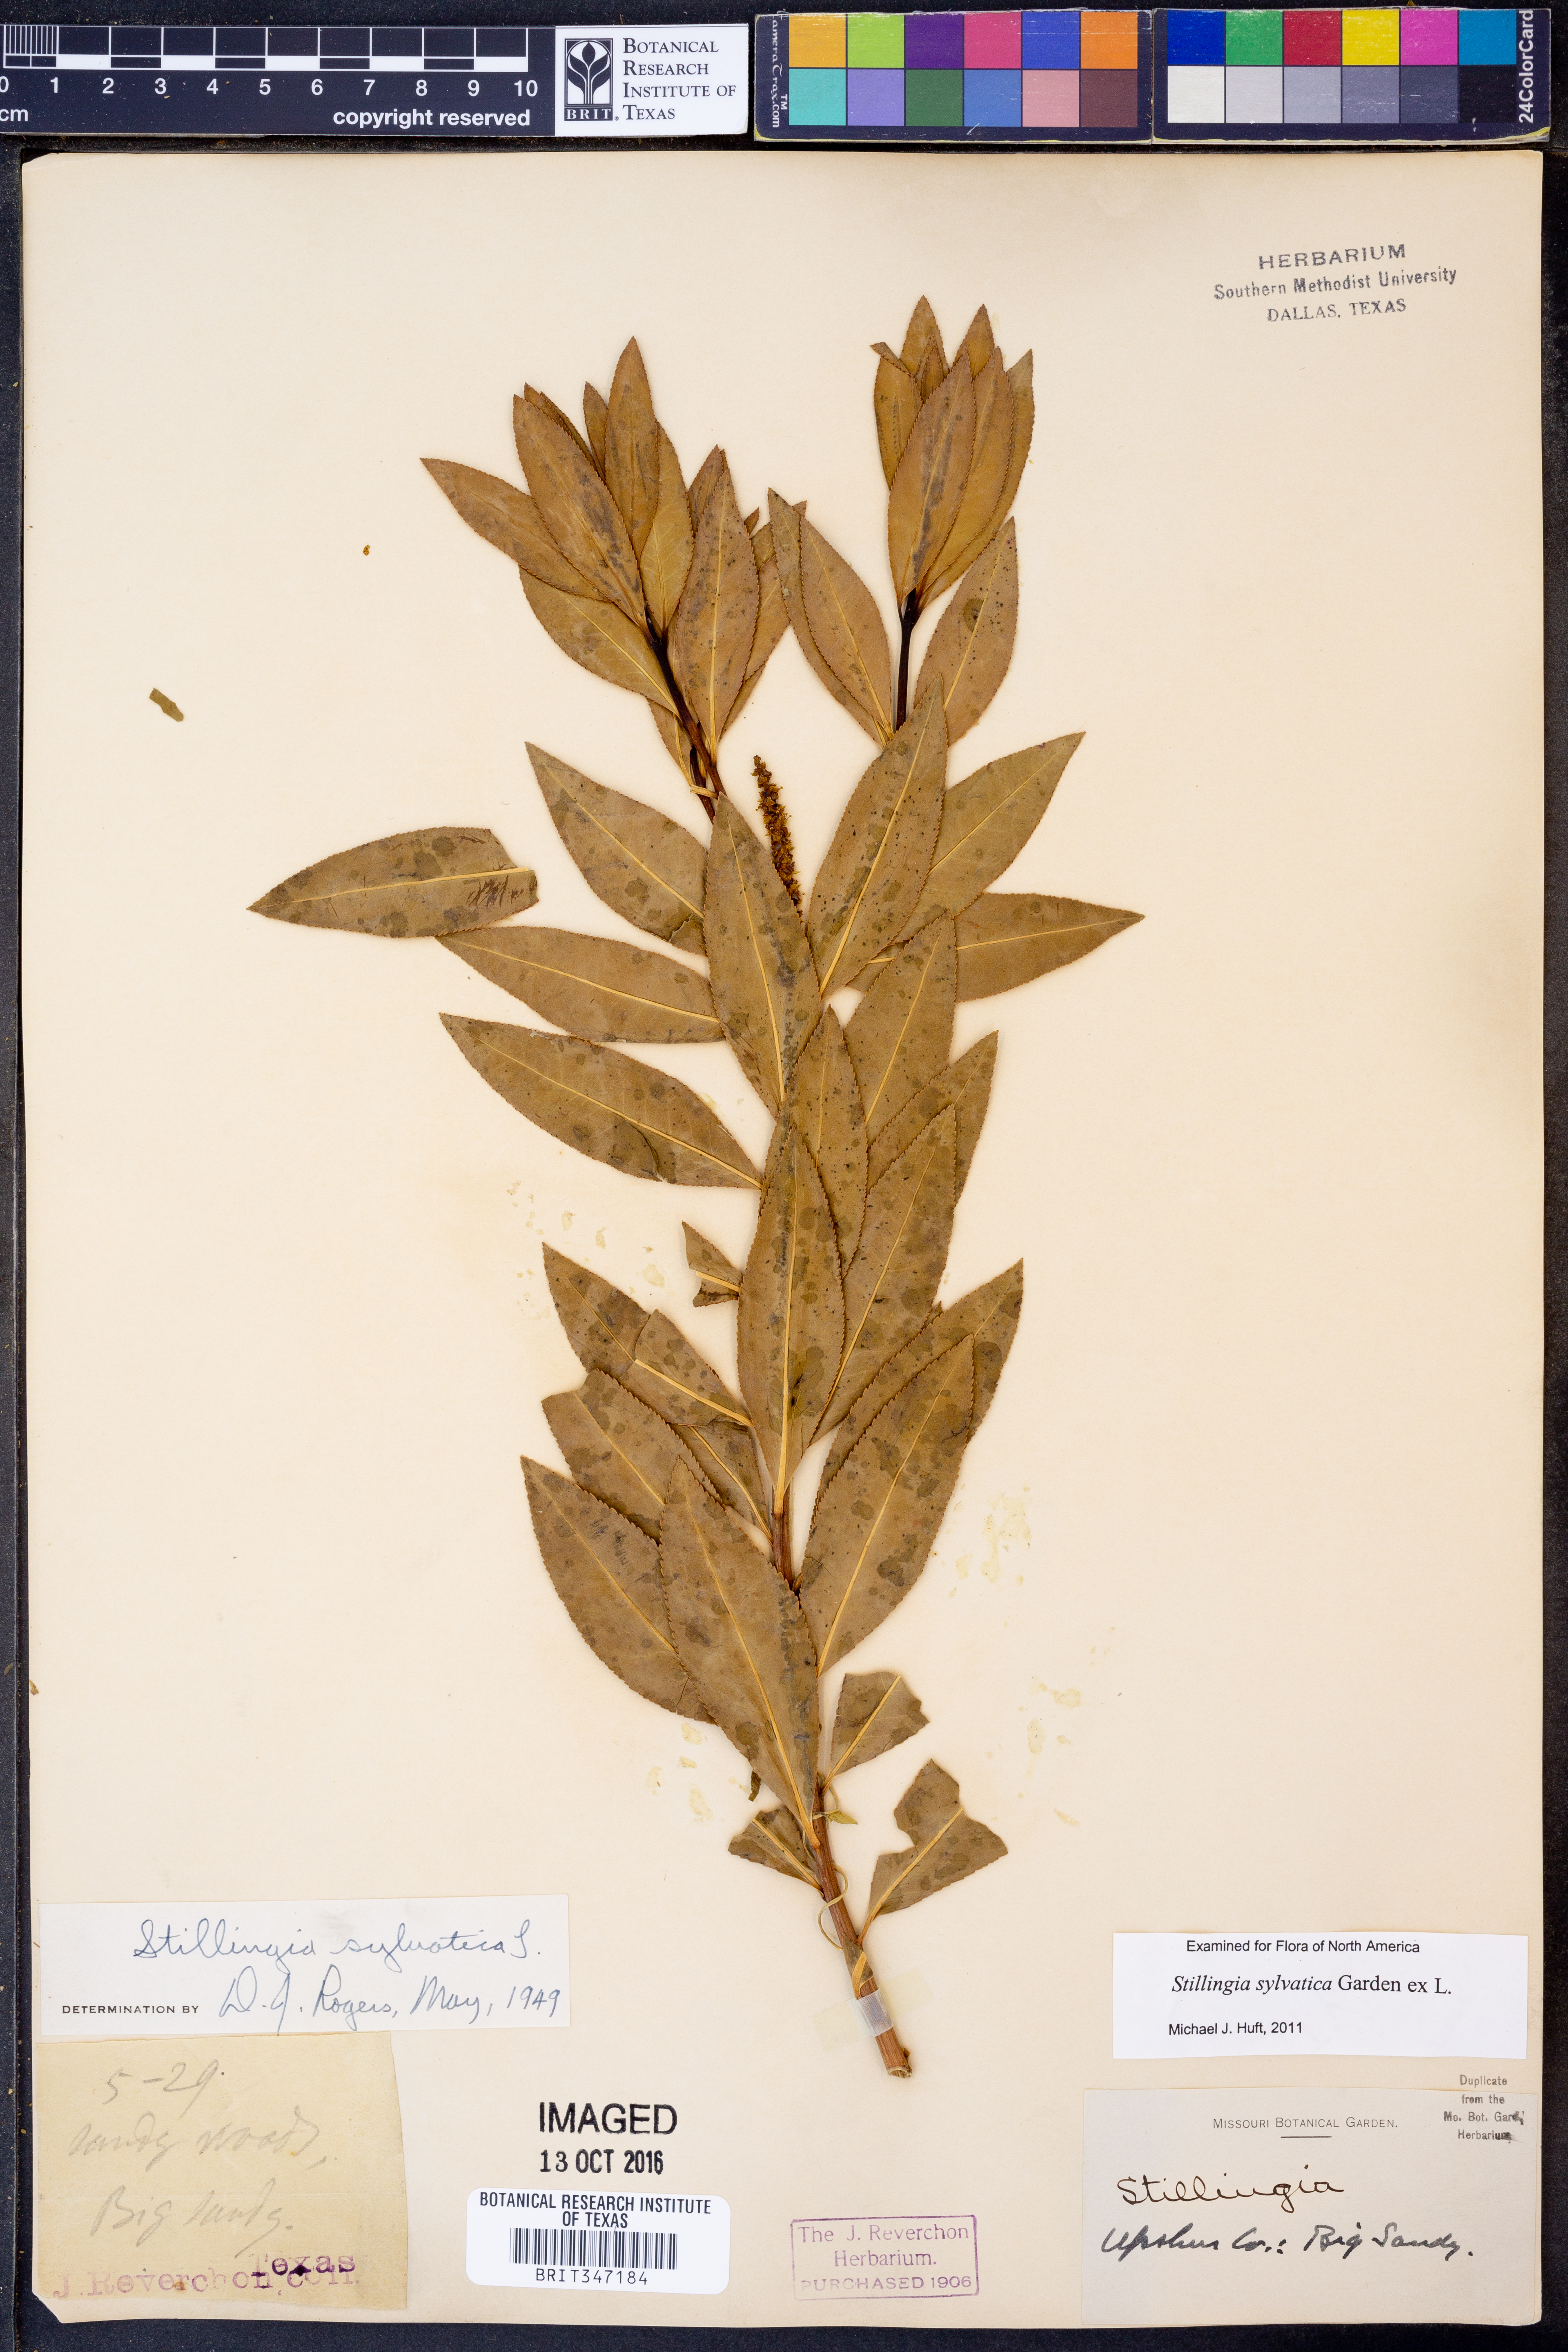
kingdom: Plantae
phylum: Tracheophyta
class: Magnoliopsida
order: Malpighiales
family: Euphorbiaceae
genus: Stillingia
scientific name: Stillingia sylvatica
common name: Queen's-delight
